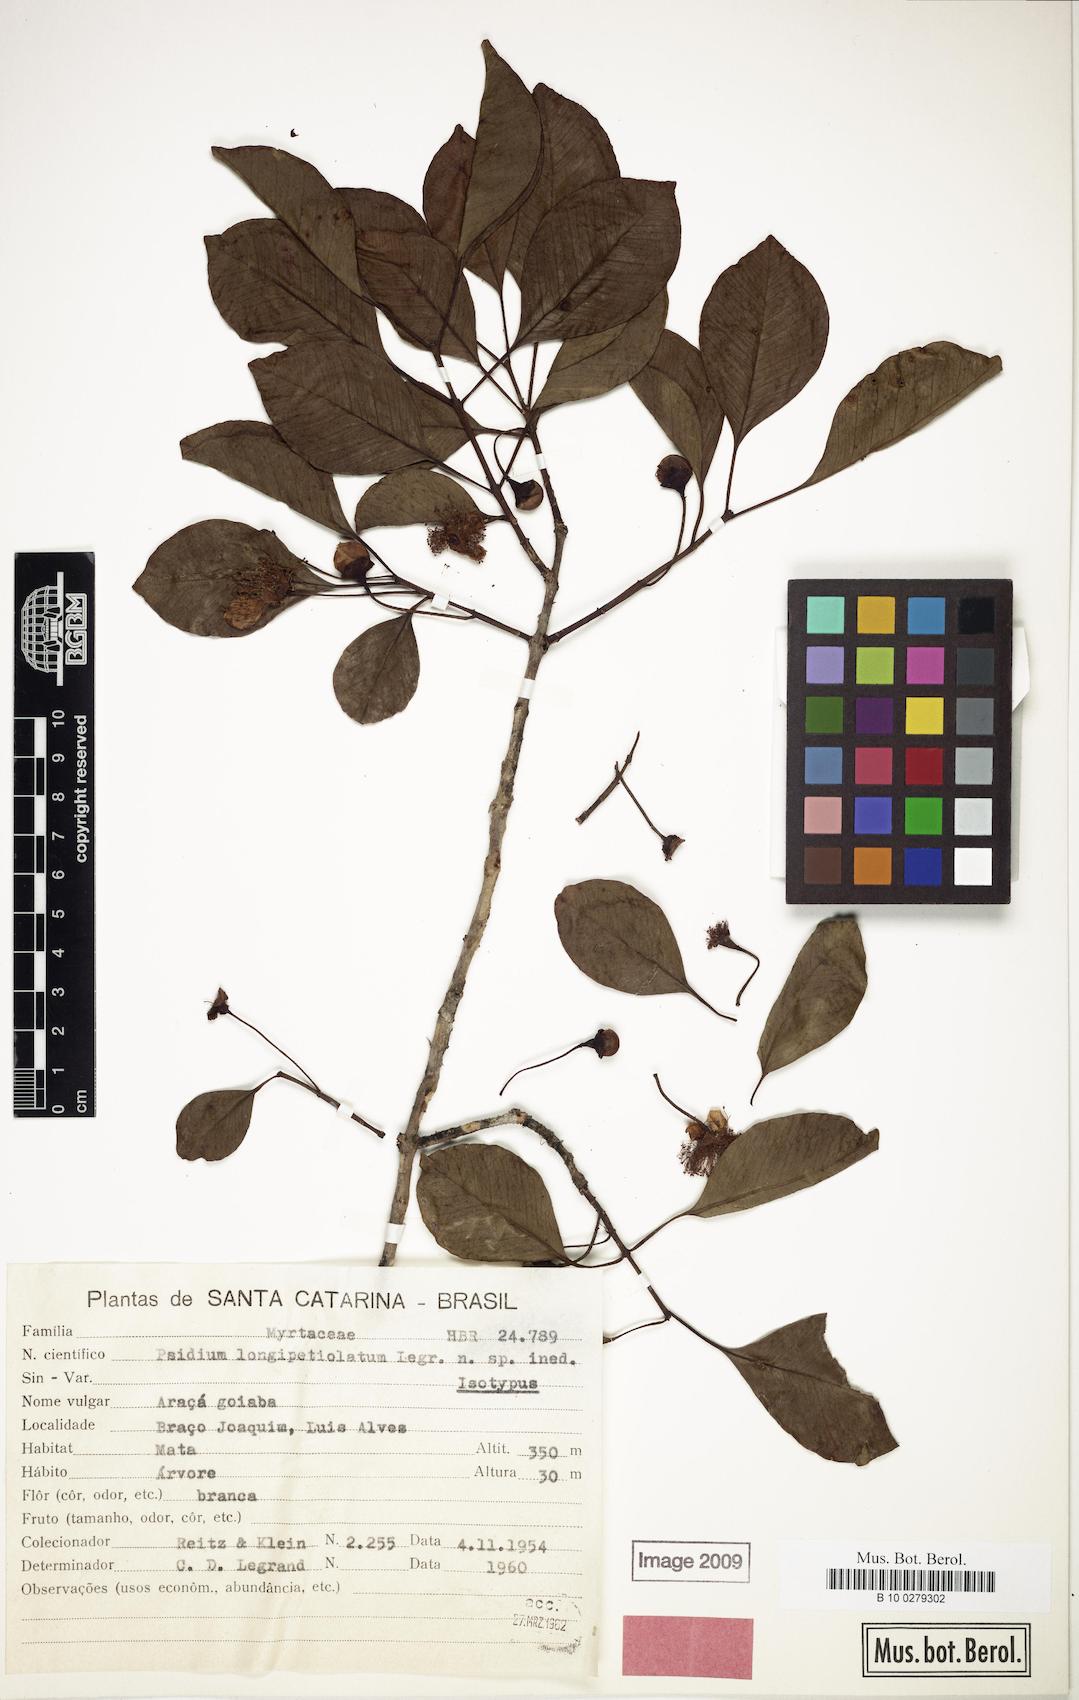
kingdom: Plantae
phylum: Tracheophyta
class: Magnoliopsida
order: Myrtales
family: Myrtaceae
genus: Psidium
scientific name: Psidium longipetiolatum
